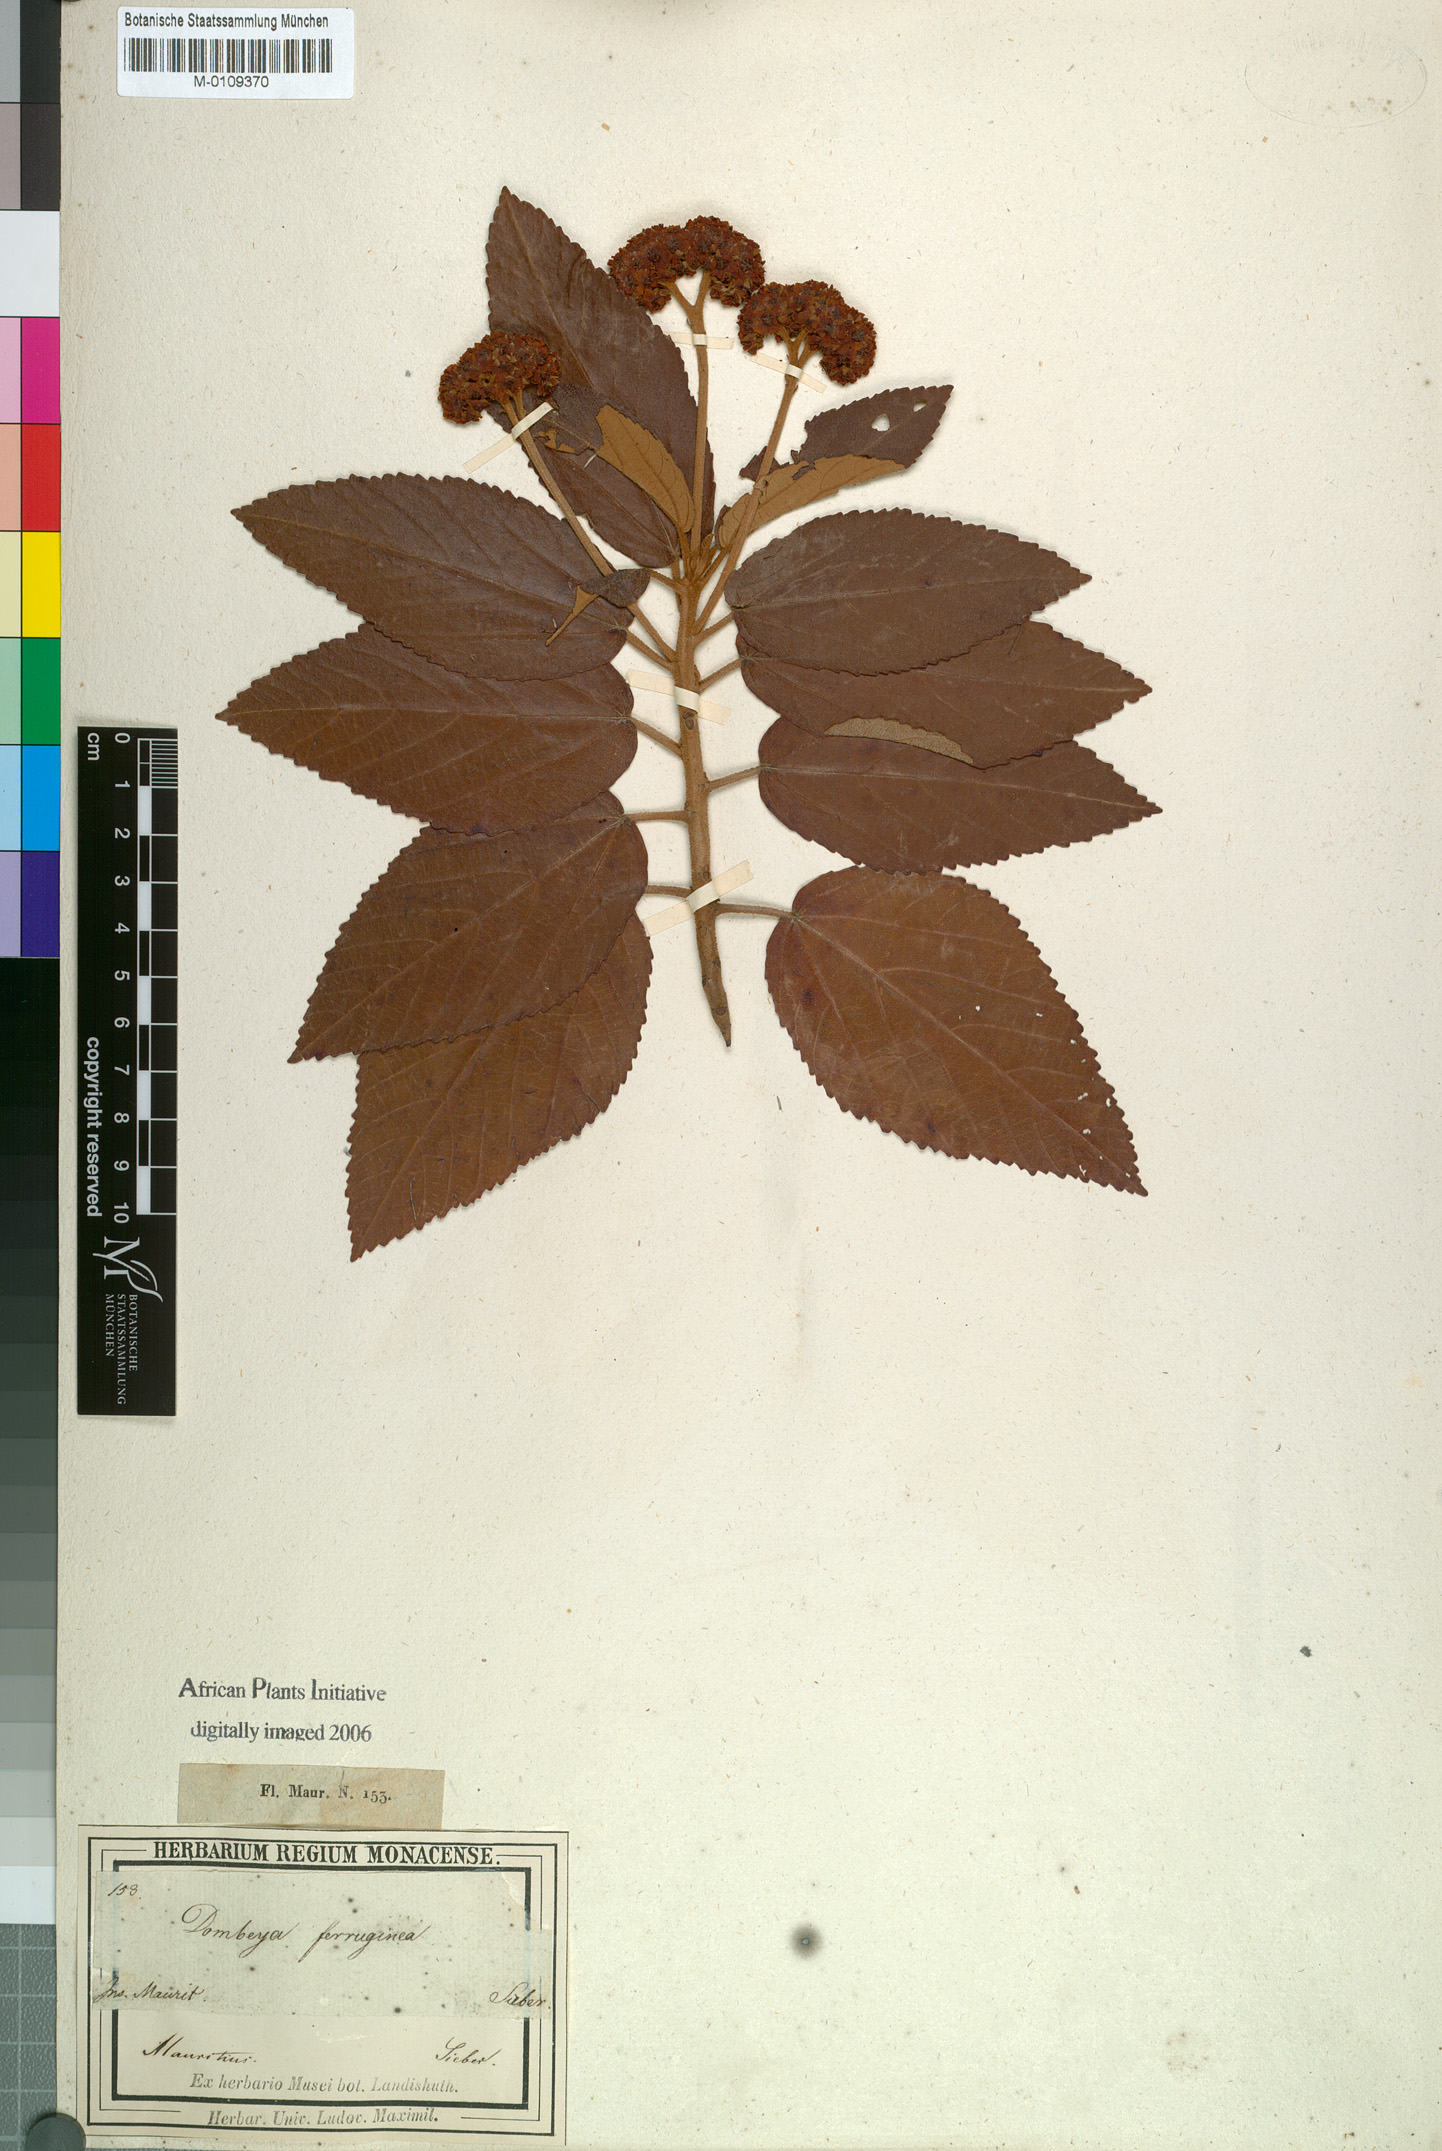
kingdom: Plantae
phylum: Tracheophyta
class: Magnoliopsida
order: Malvales
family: Malvaceae
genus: Ruizia
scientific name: Ruizia ferruginea
